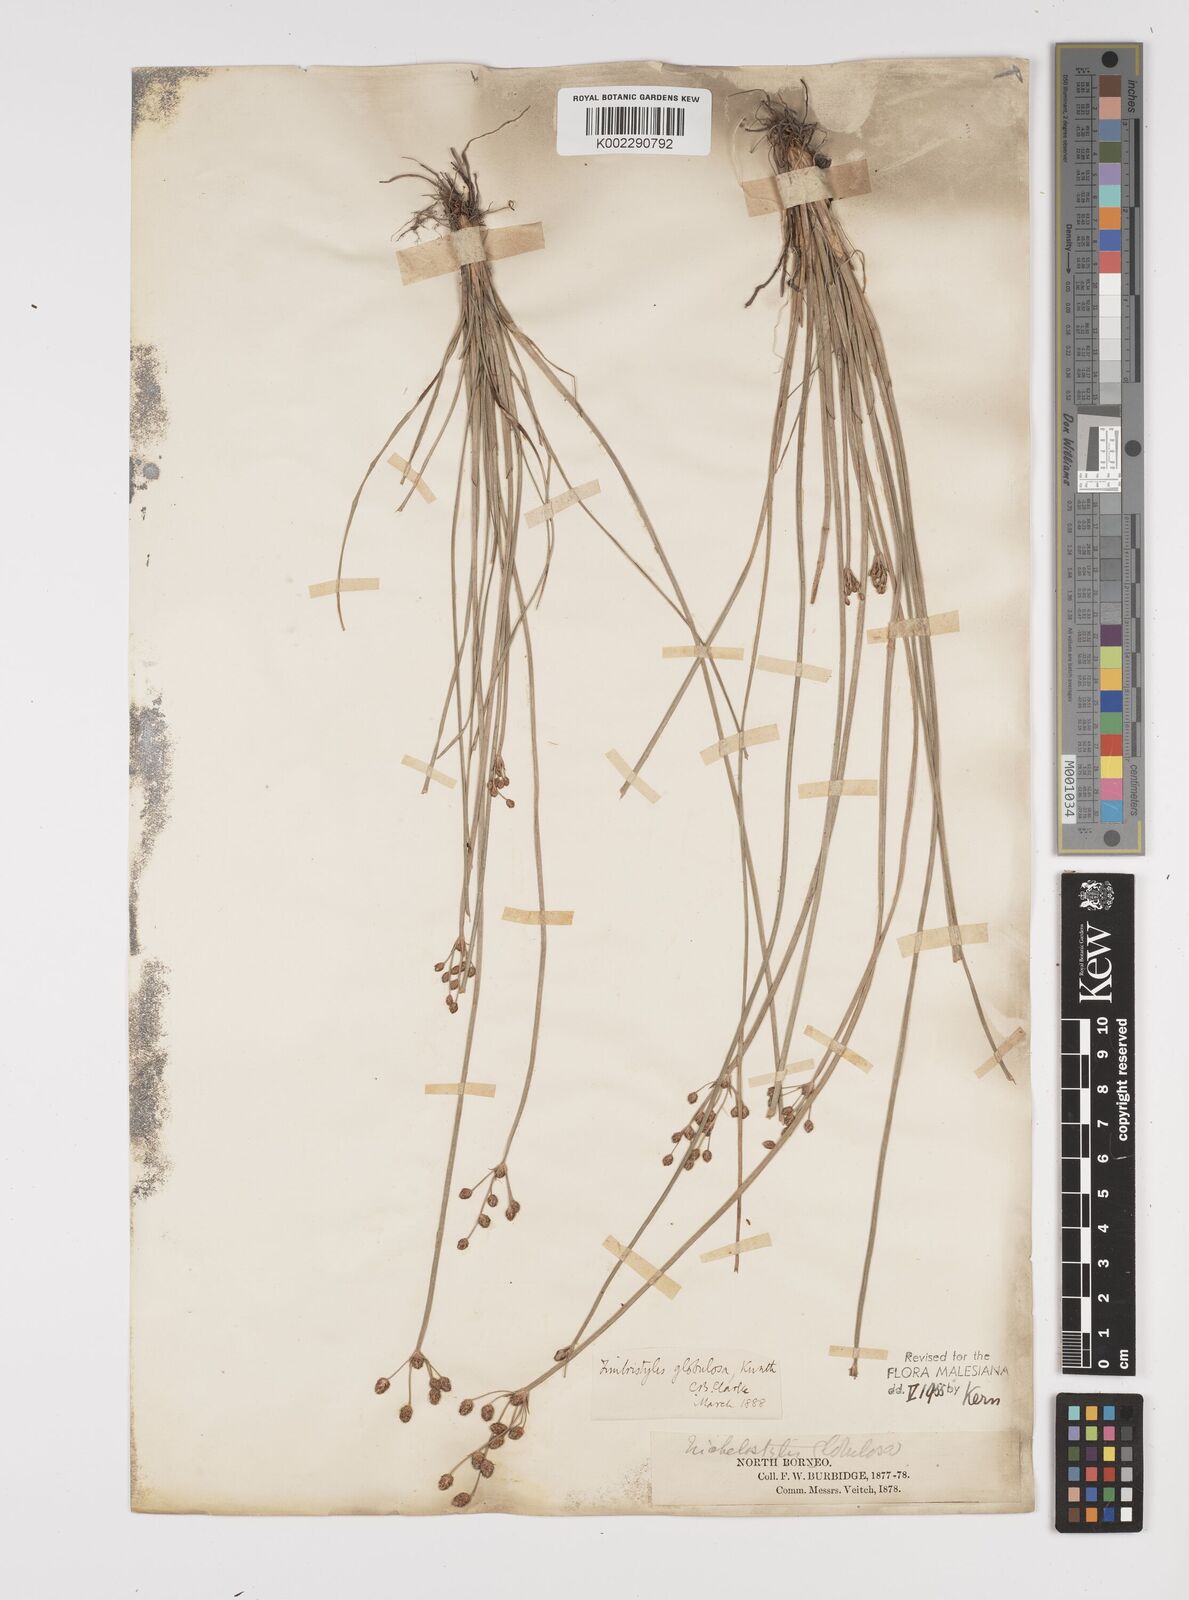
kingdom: Plantae
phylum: Tracheophyta
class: Liliopsida
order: Poales
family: Cyperaceae
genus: Fimbristylis
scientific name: Fimbristylis umbellaris
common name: Globular fimbristylis
